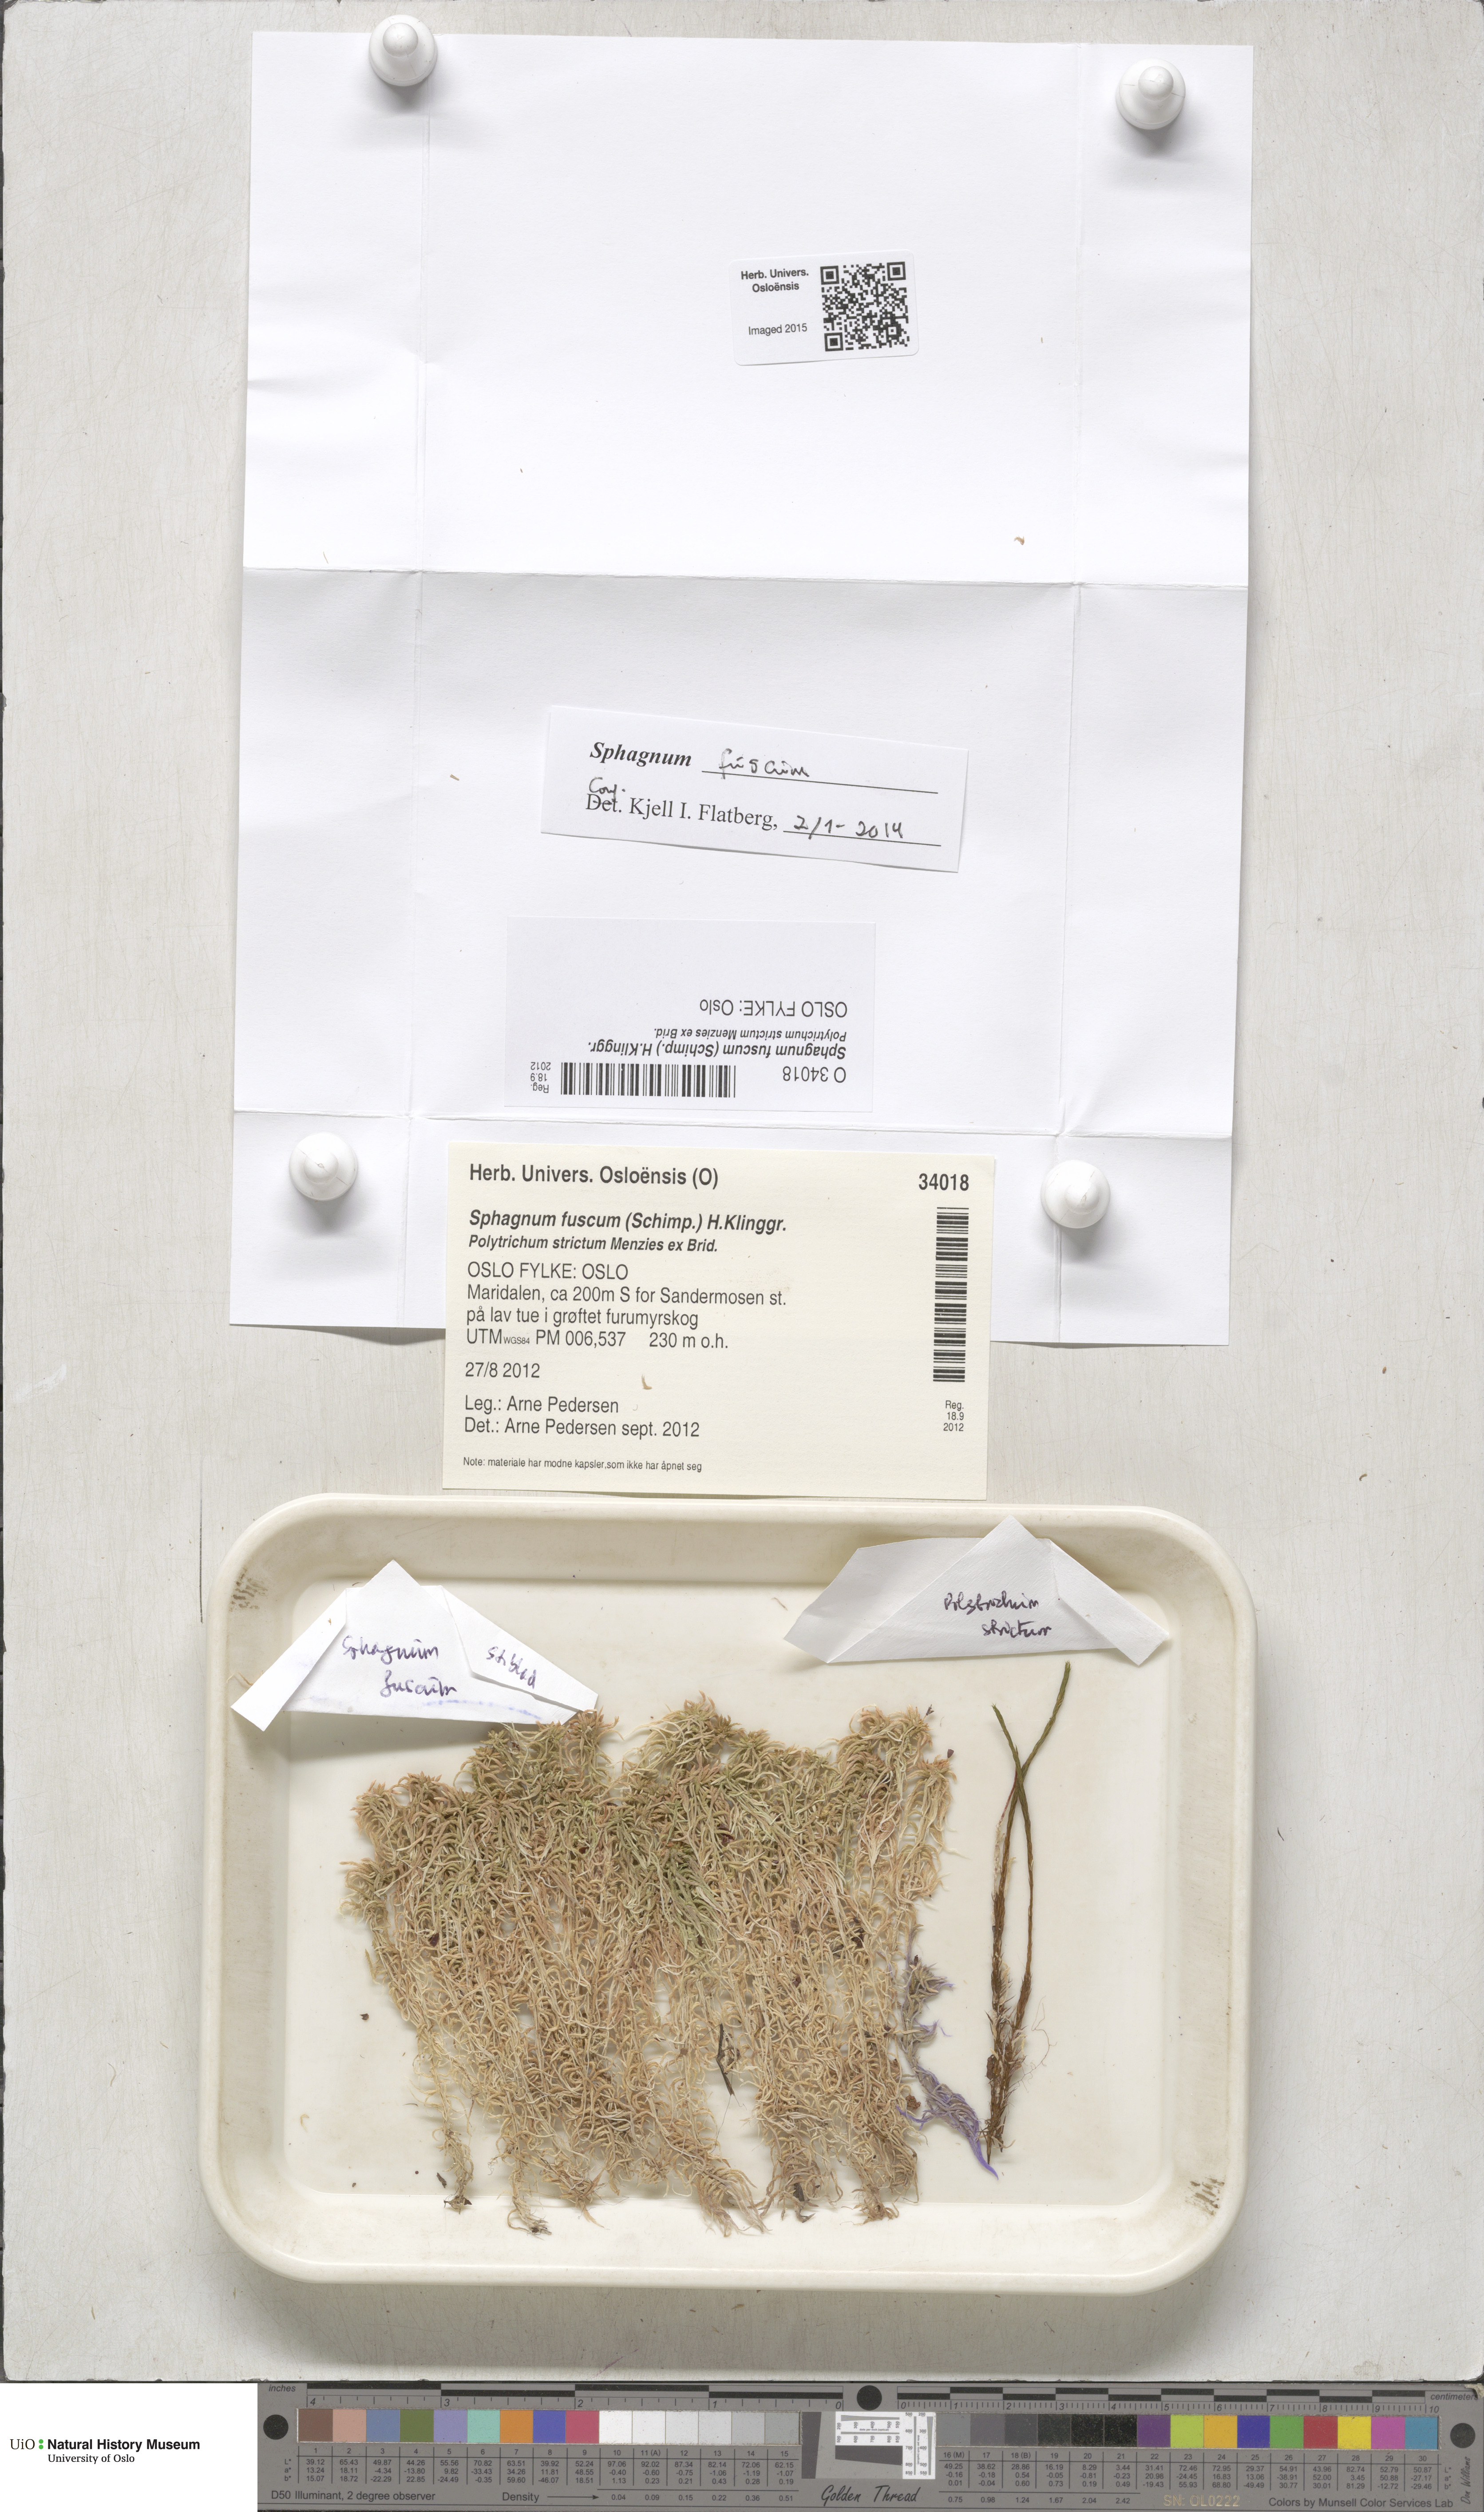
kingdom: Plantae
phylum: Bryophyta
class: Sphagnopsida
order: Sphagnales
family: Sphagnaceae
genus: Sphagnum
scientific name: Sphagnum fuscum
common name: Brown peat moss
